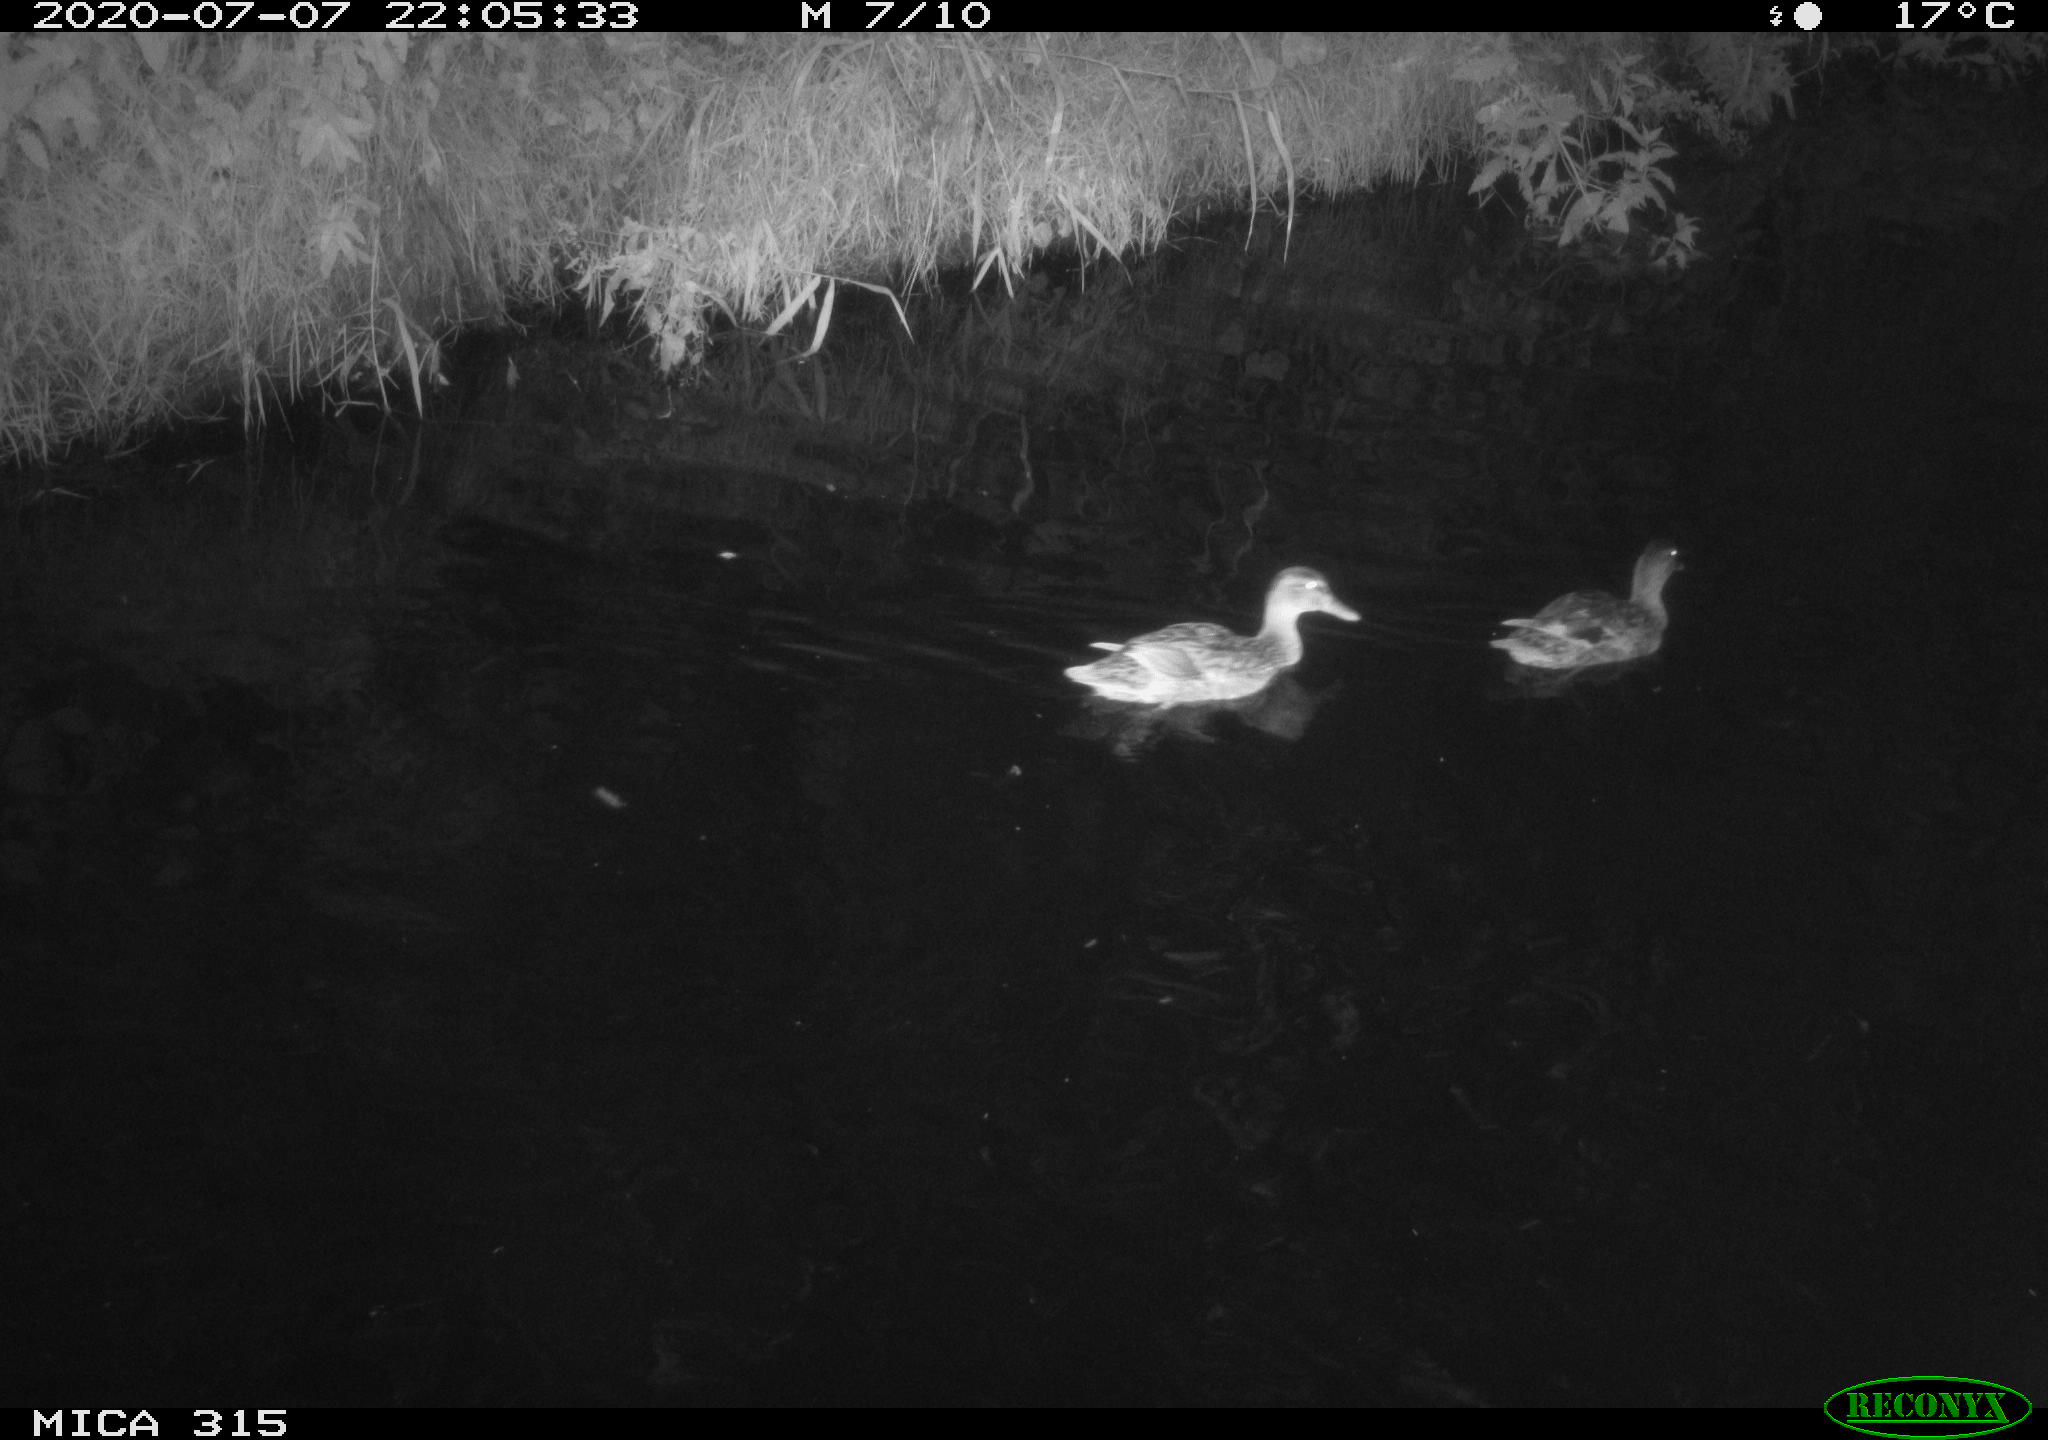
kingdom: Animalia
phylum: Chordata
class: Aves
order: Anseriformes
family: Anatidae
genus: Anas
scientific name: Anas platyrhynchos
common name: Mallard
